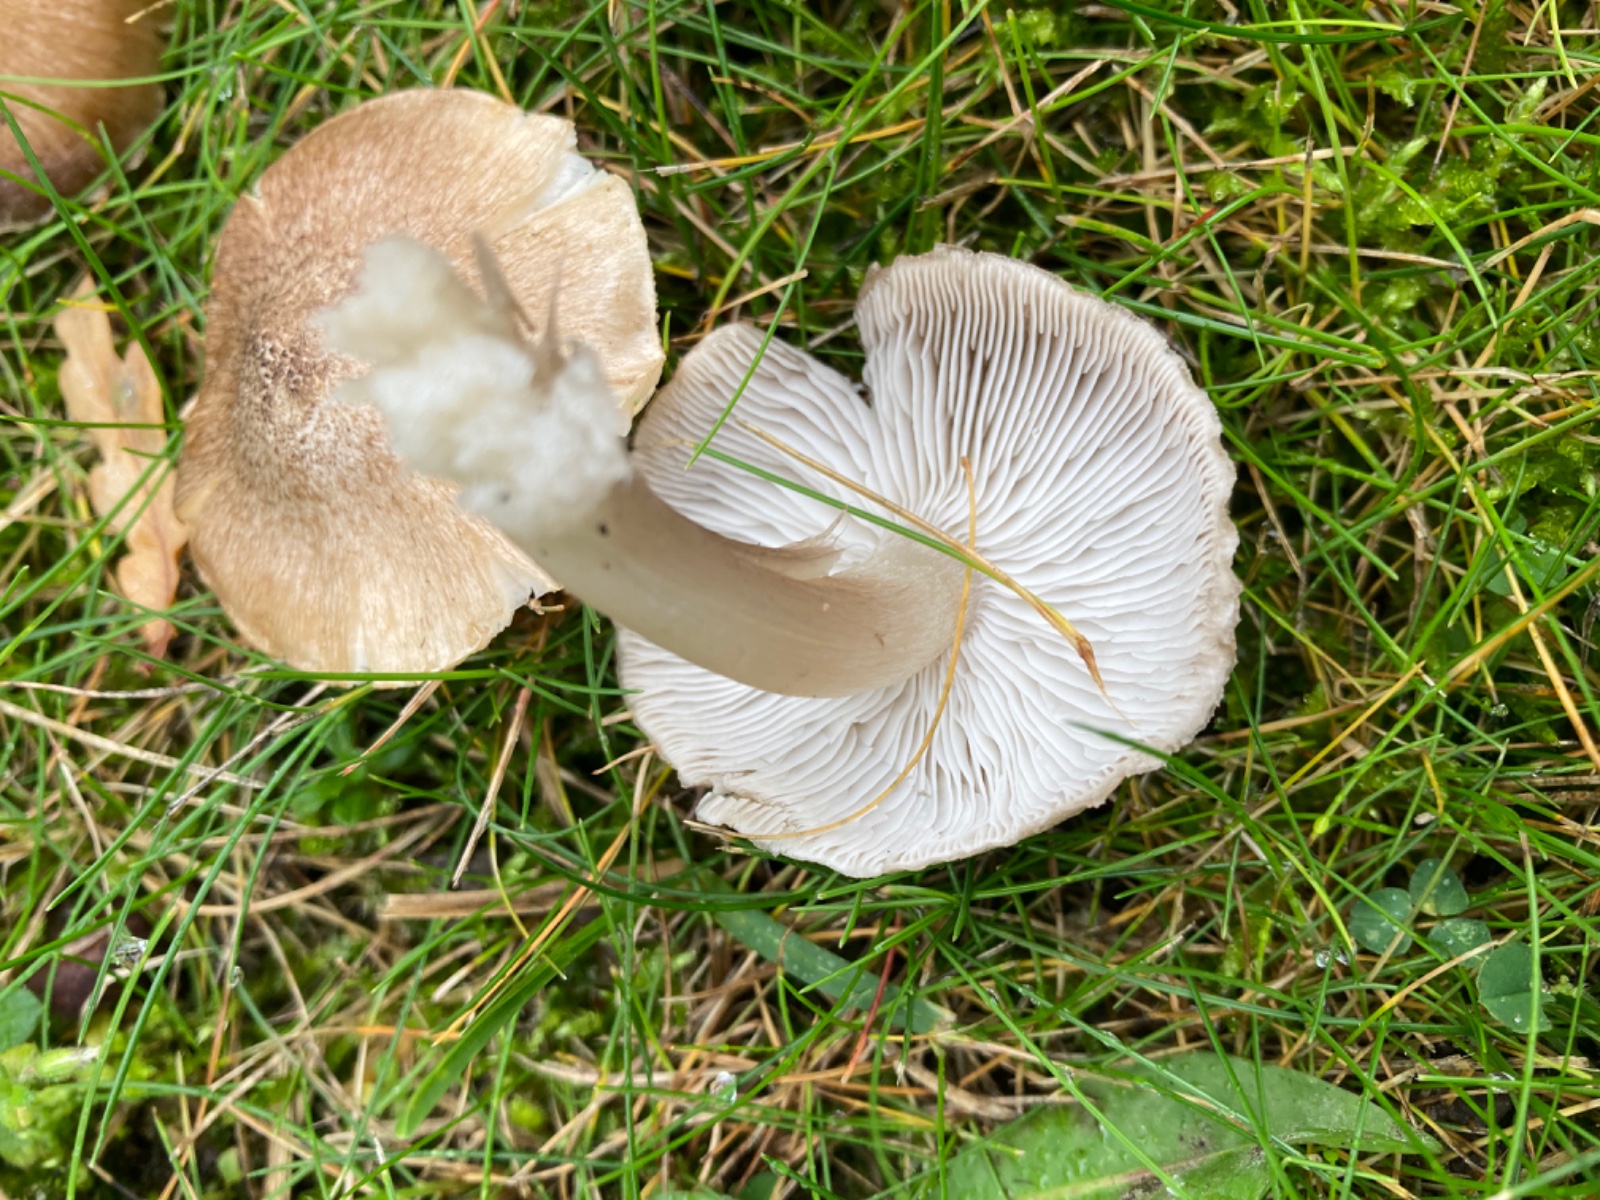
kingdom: Fungi
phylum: Basidiomycota
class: Agaricomycetes
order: Agaricales
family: Tricholomataceae
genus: Tricholoma
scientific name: Tricholoma scalpturatum
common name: gulplettet ridderhat
